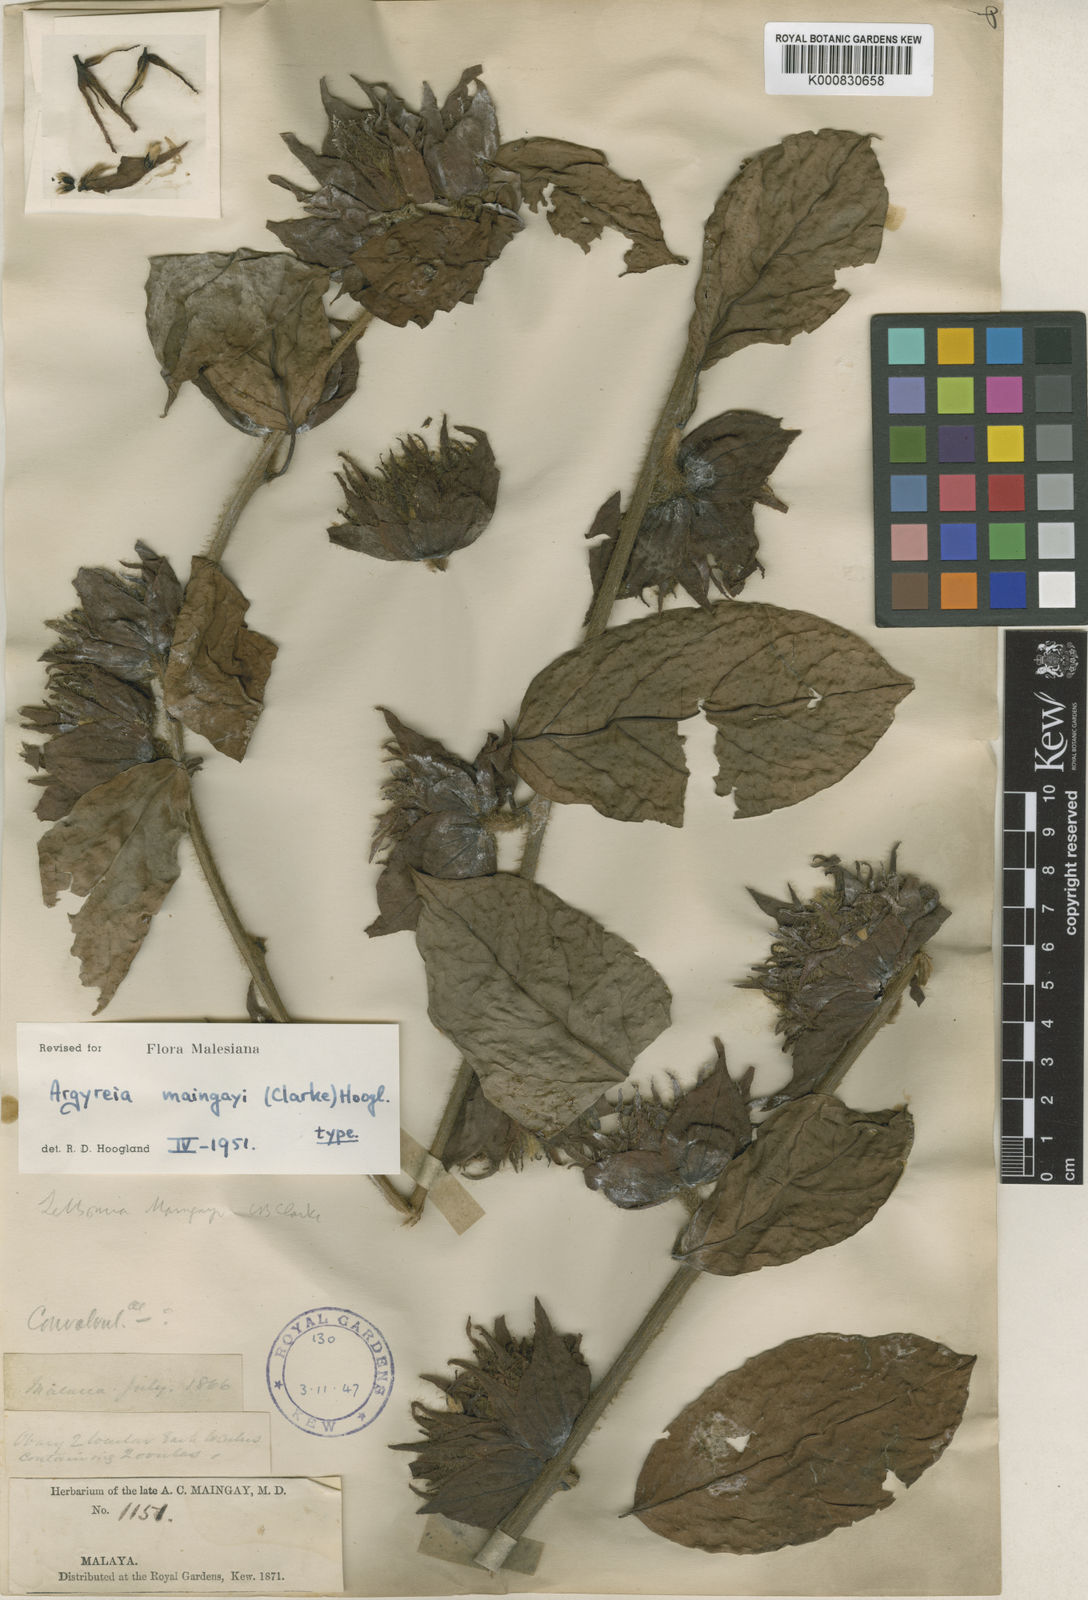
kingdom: Plantae
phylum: Tracheophyta
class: Magnoliopsida
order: Solanales
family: Convolvulaceae
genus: Argyreia
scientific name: Argyreia maingayi
